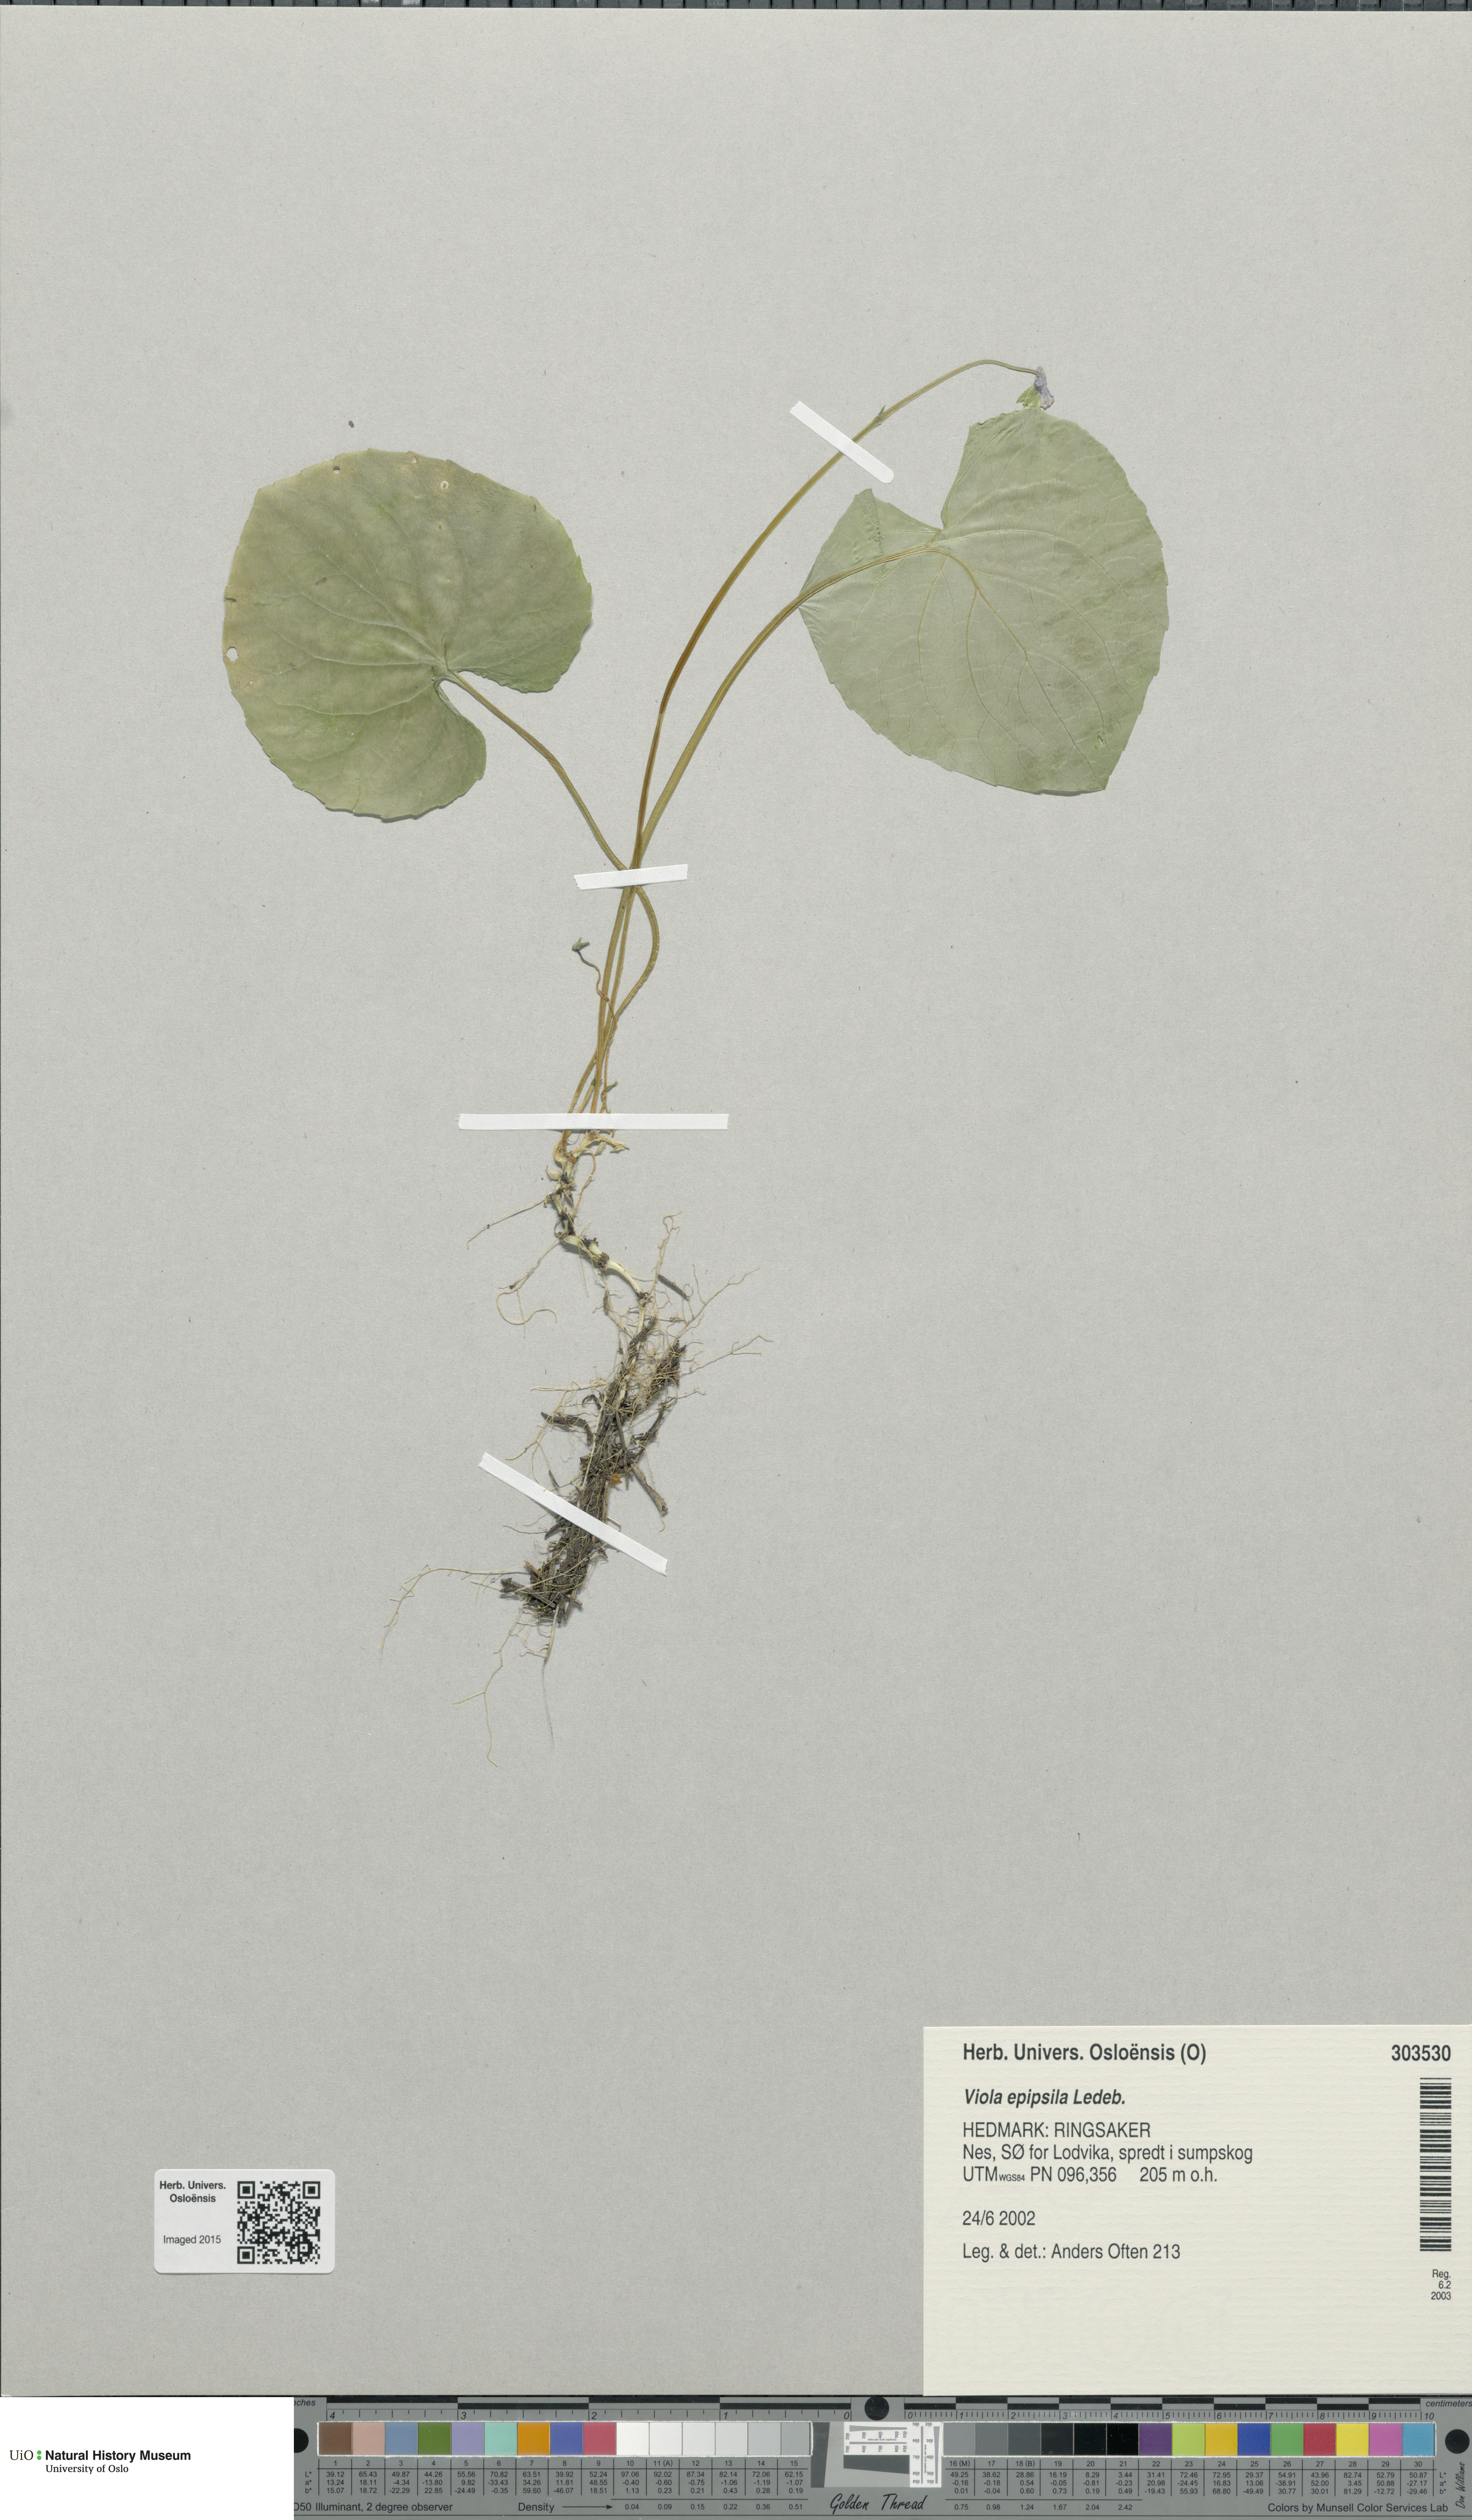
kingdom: Plantae
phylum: Tracheophyta
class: Magnoliopsida
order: Malpighiales
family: Violaceae
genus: Viola
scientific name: Viola epipsila
